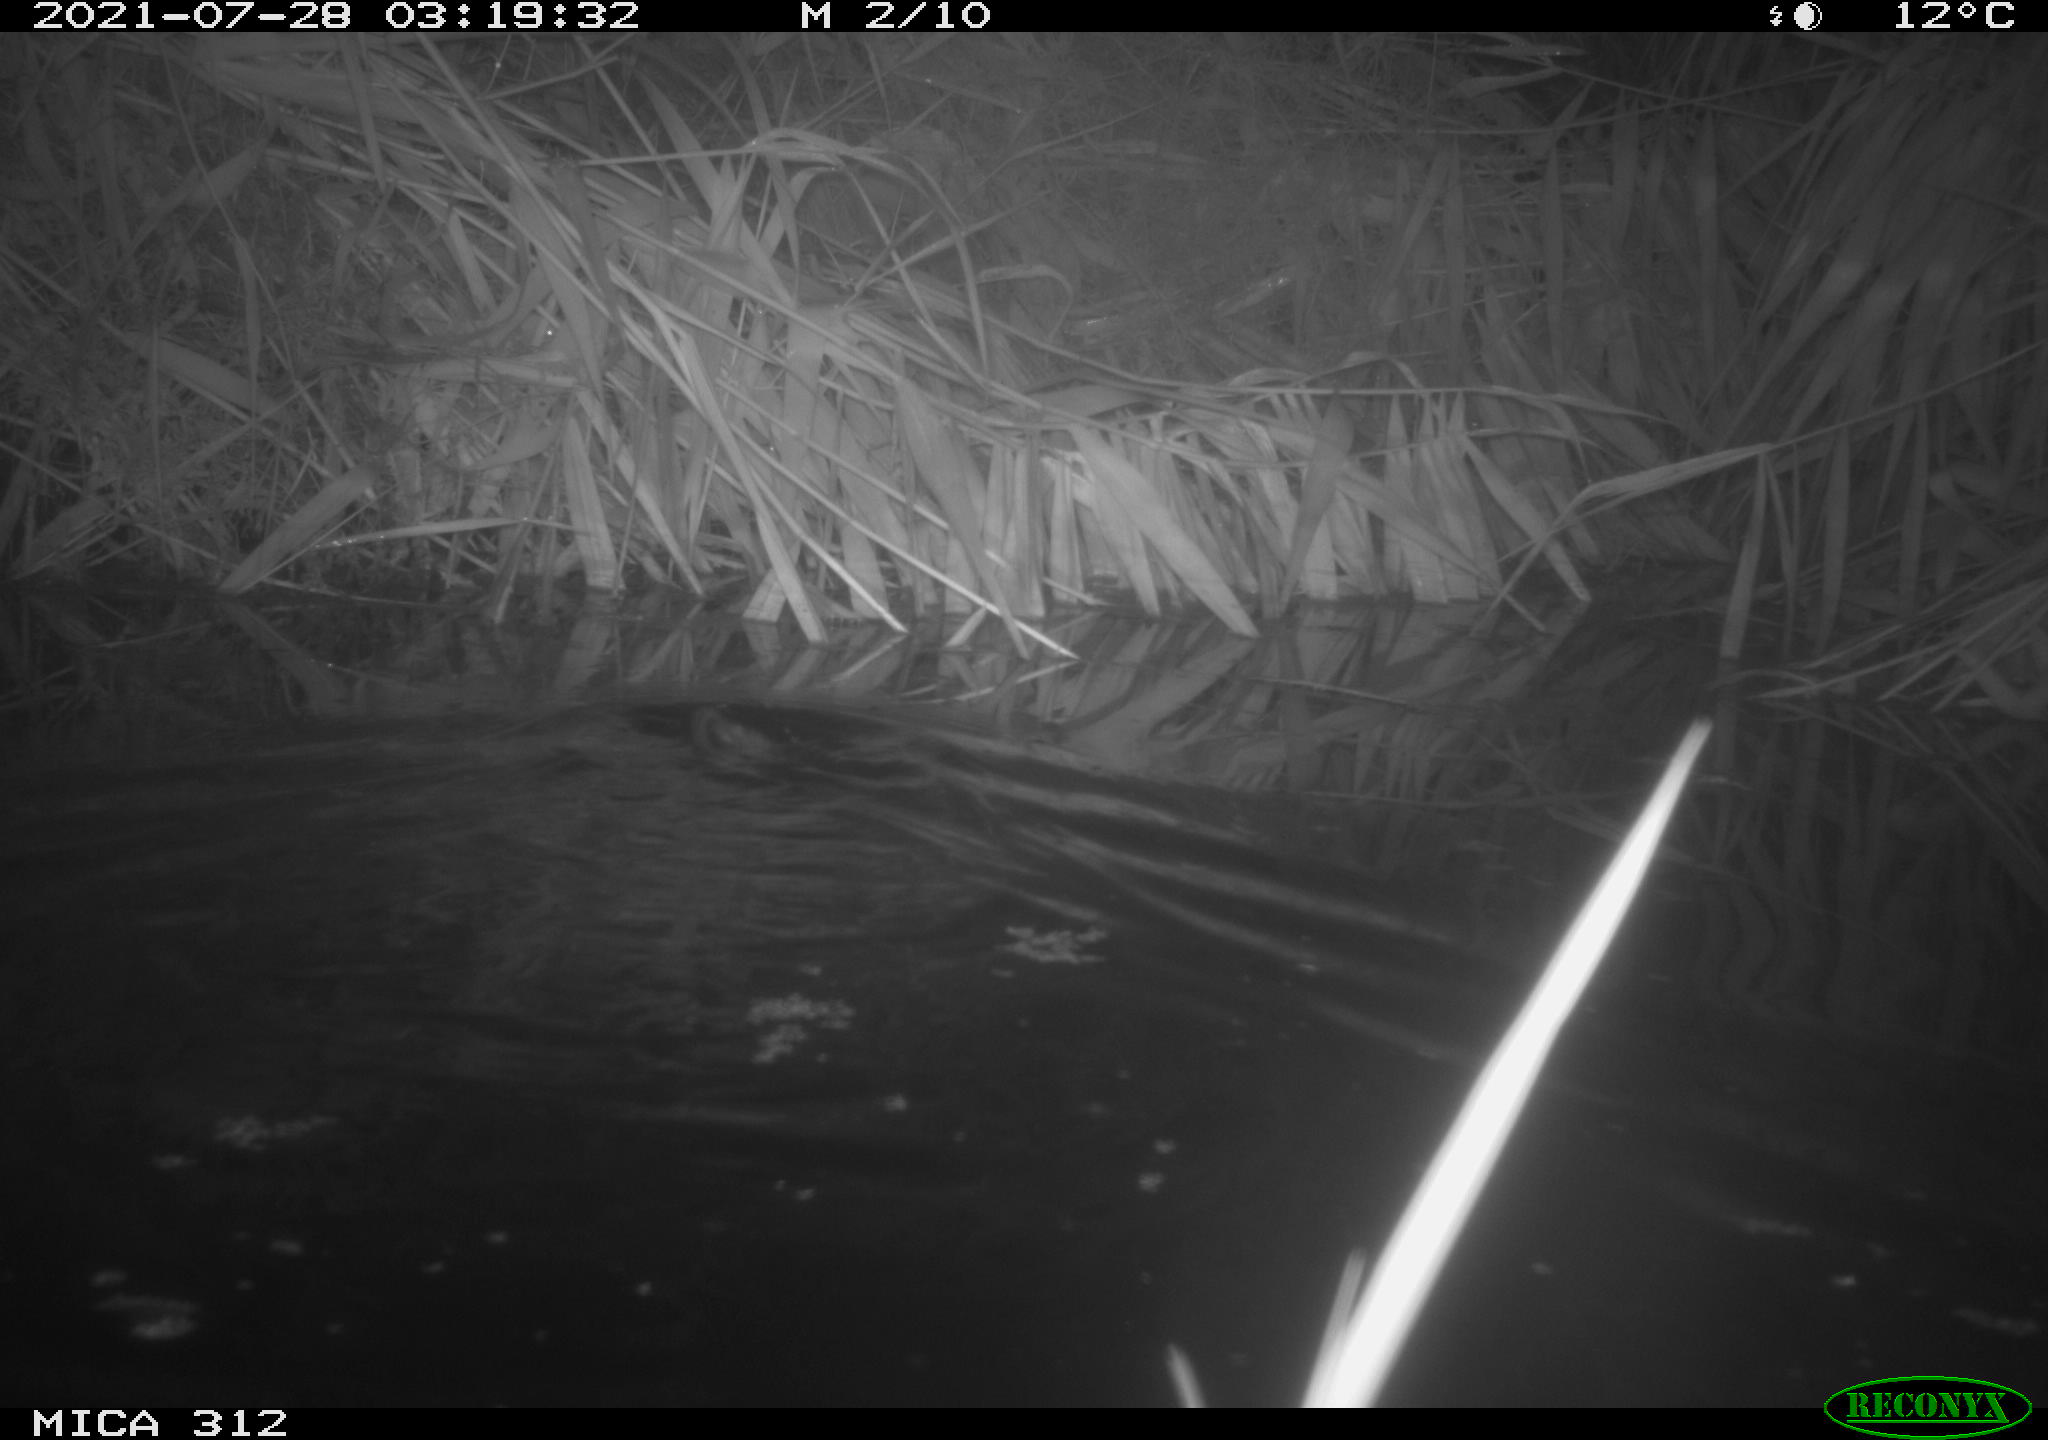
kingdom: Animalia
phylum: Chordata
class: Mammalia
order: Rodentia
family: Cricetidae
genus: Ondatra
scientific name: Ondatra zibethicus
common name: Muskrat
